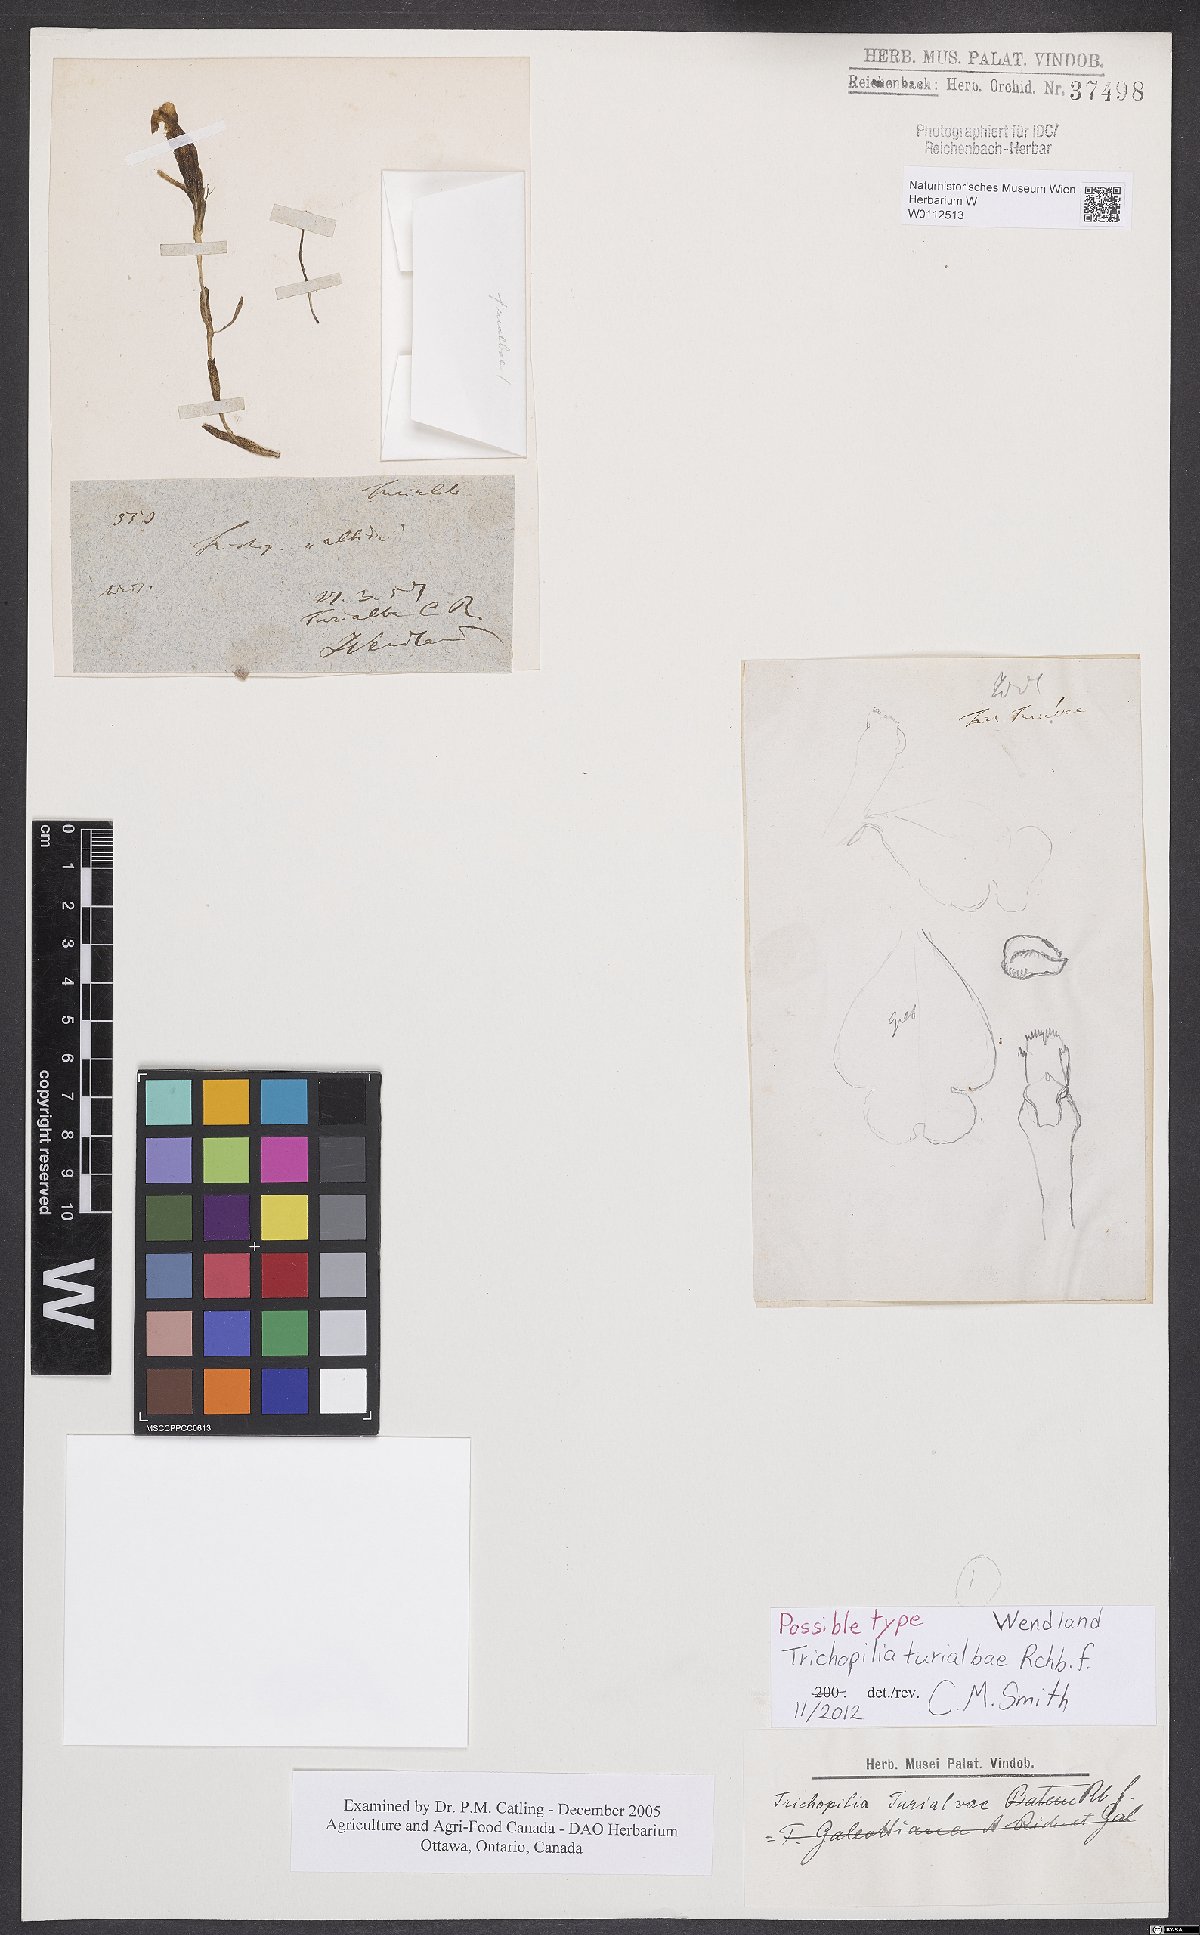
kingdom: Plantae
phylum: Tracheophyta
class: Liliopsida
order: Asparagales
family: Orchidaceae
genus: Trichopilia
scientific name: Trichopilia turialbae
